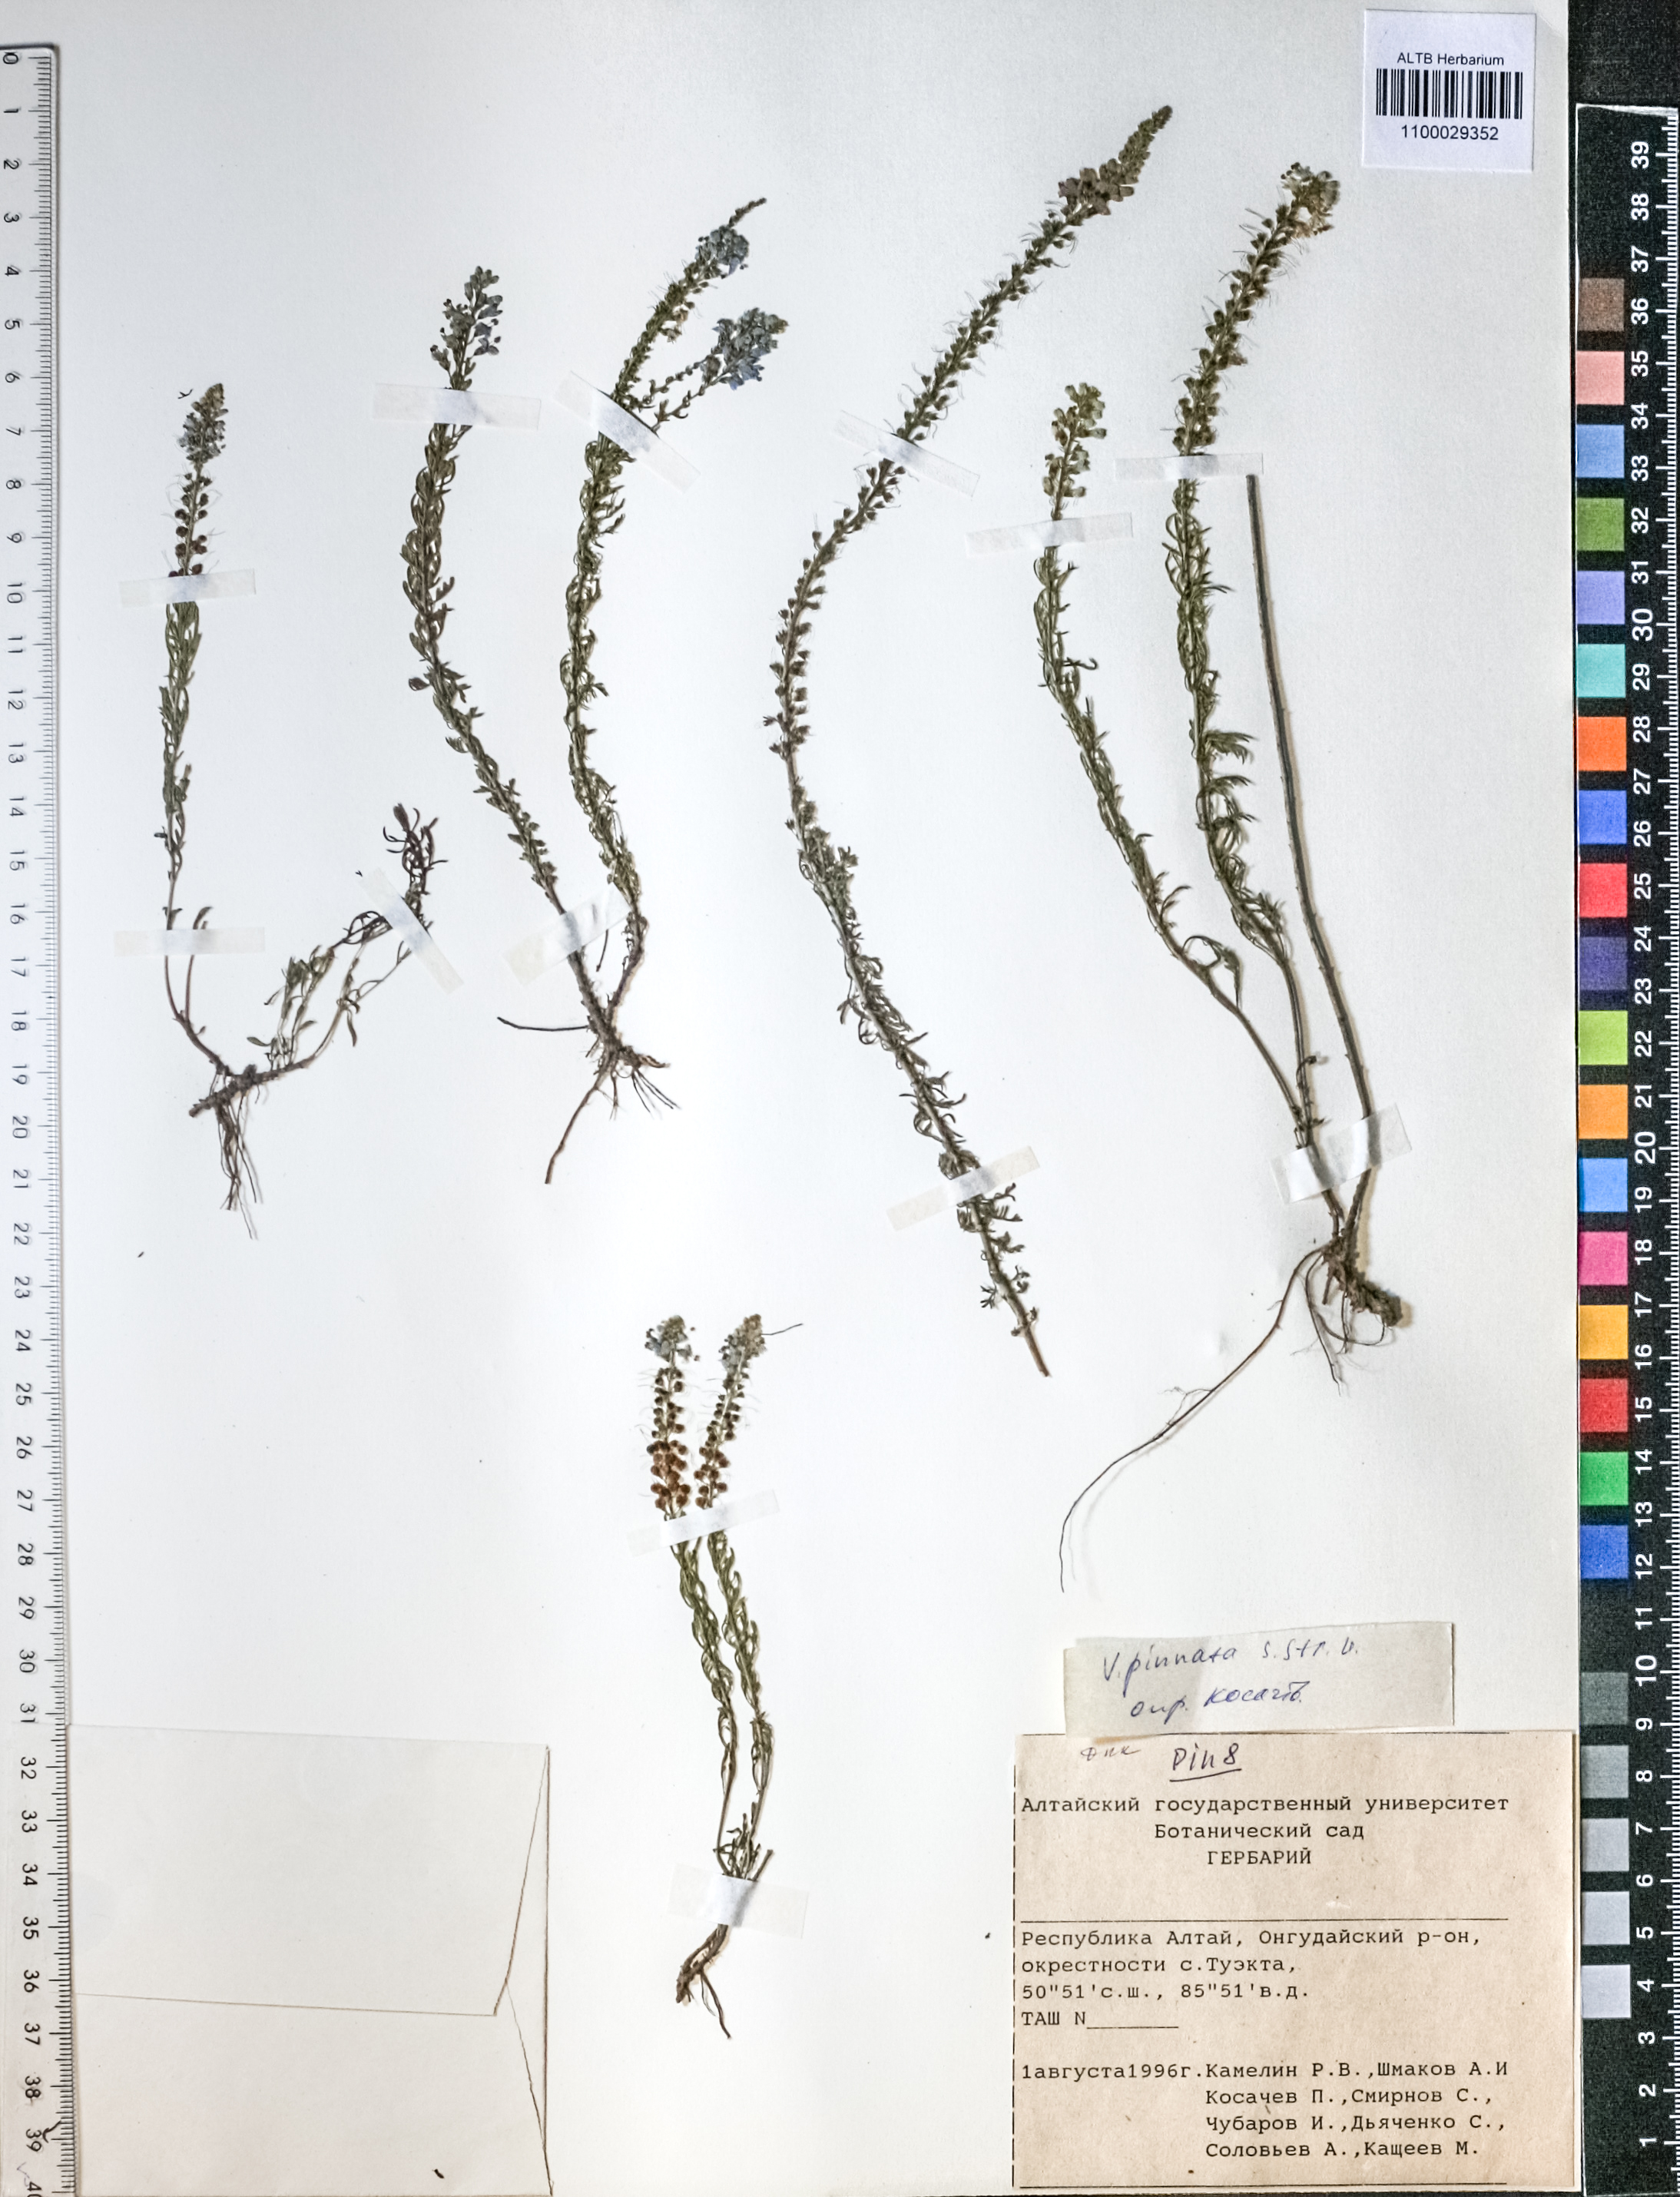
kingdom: Plantae
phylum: Tracheophyta
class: Magnoliopsida
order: Lamiales
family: Plantaginaceae
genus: Veronica
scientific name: Veronica pinnata
